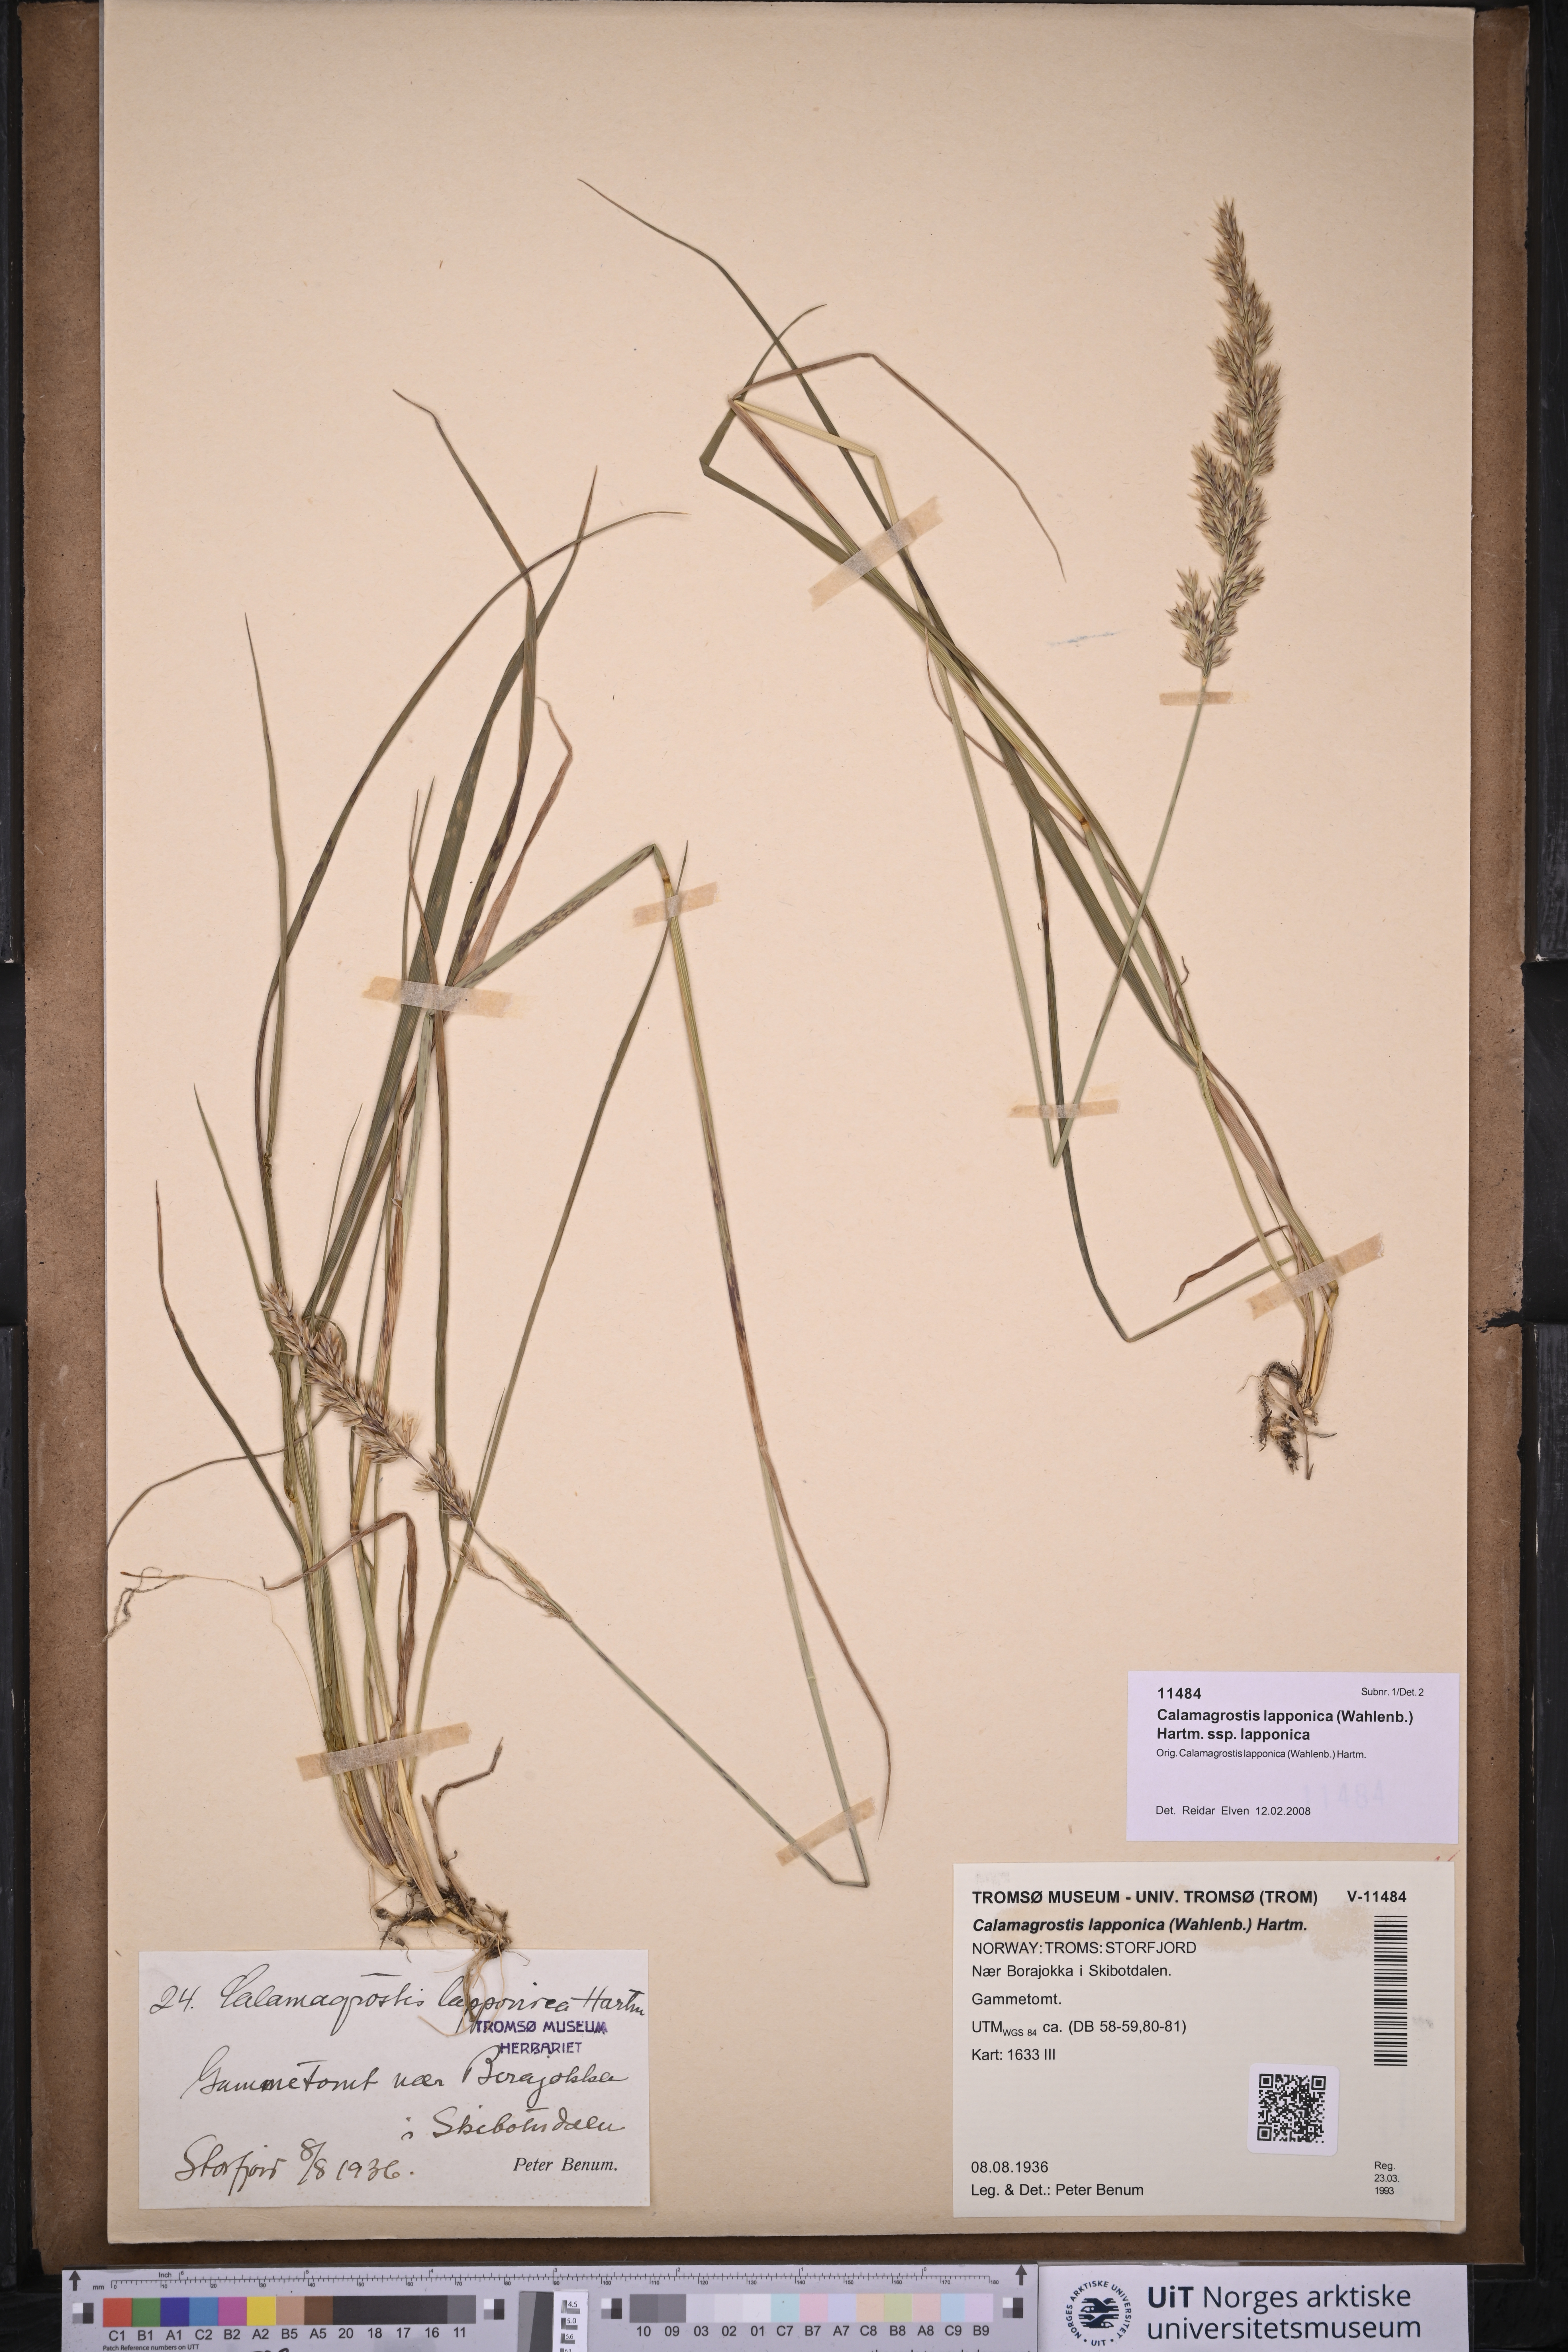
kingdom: Plantae
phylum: Tracheophyta
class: Liliopsida
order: Poales
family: Poaceae
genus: Calamagrostis
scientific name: Calamagrostis lapponica
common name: Lapland reedgrass
